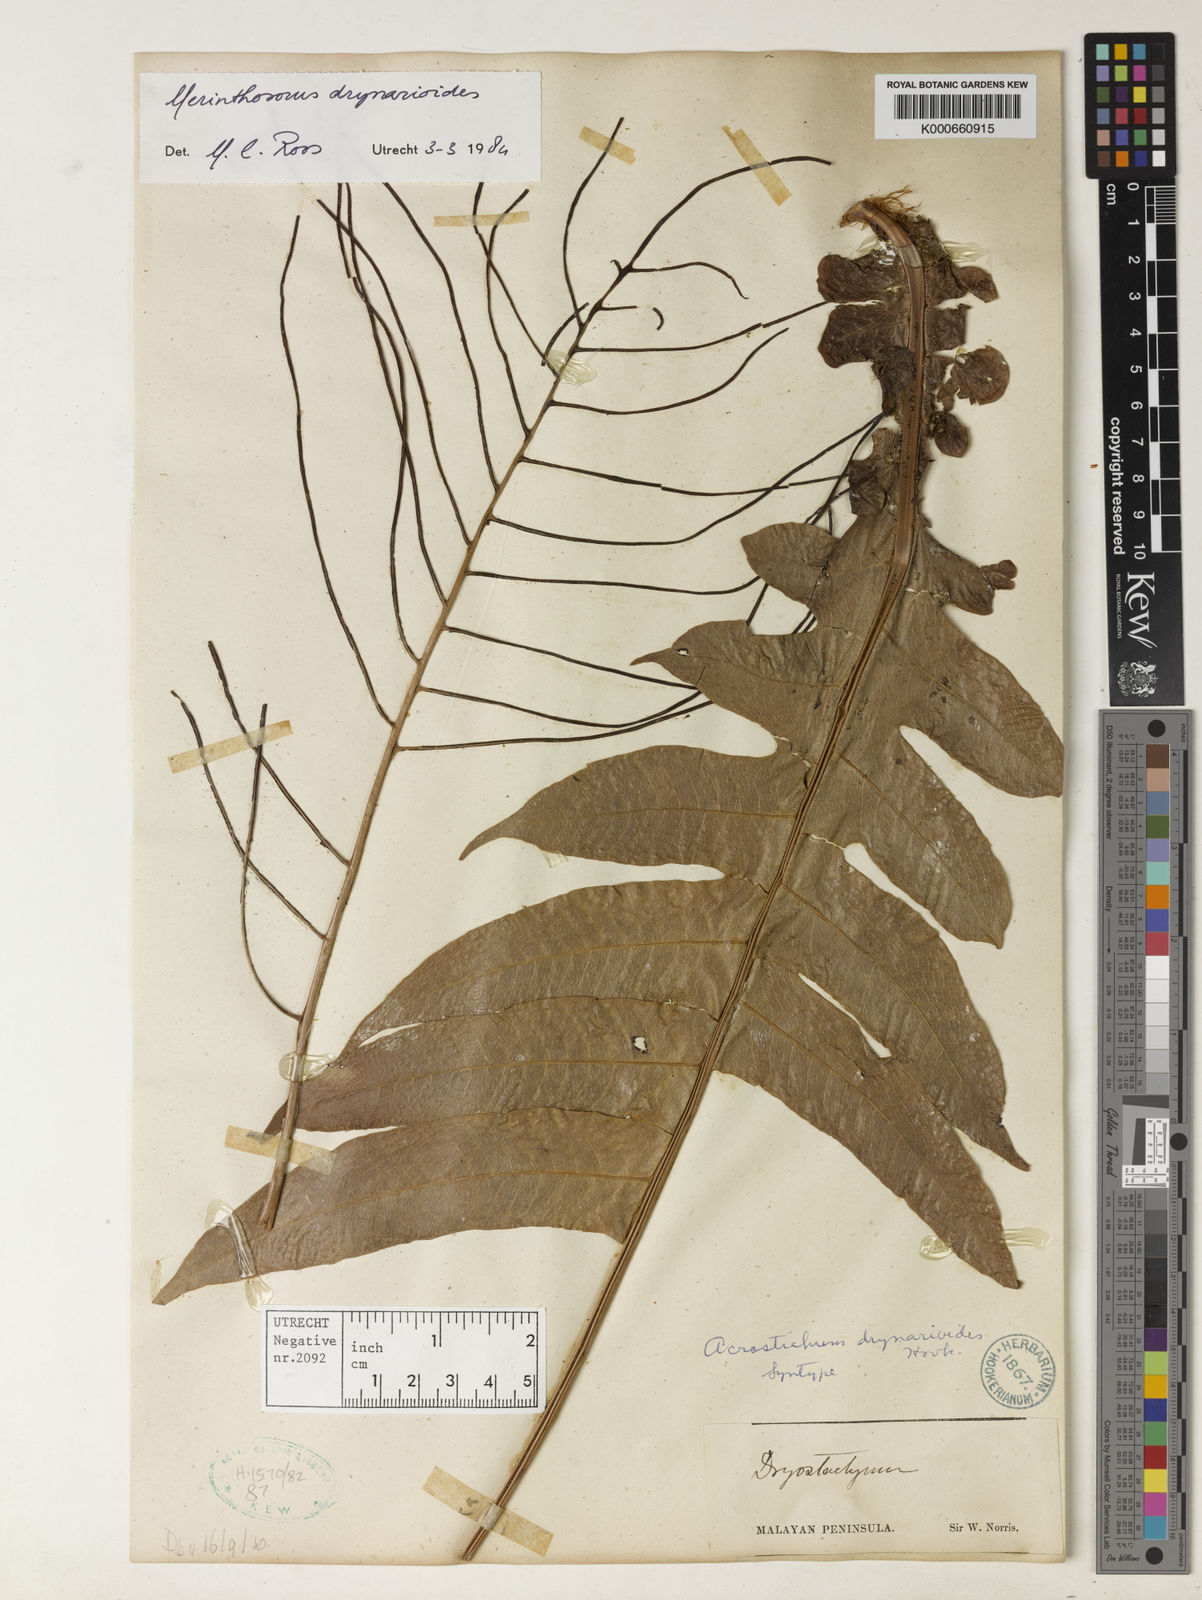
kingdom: Plantae
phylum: Tracheophyta
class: Polypodiopsida
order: Polypodiales
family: Polypodiaceae
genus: Drynaria
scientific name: Drynaria drynarioides
